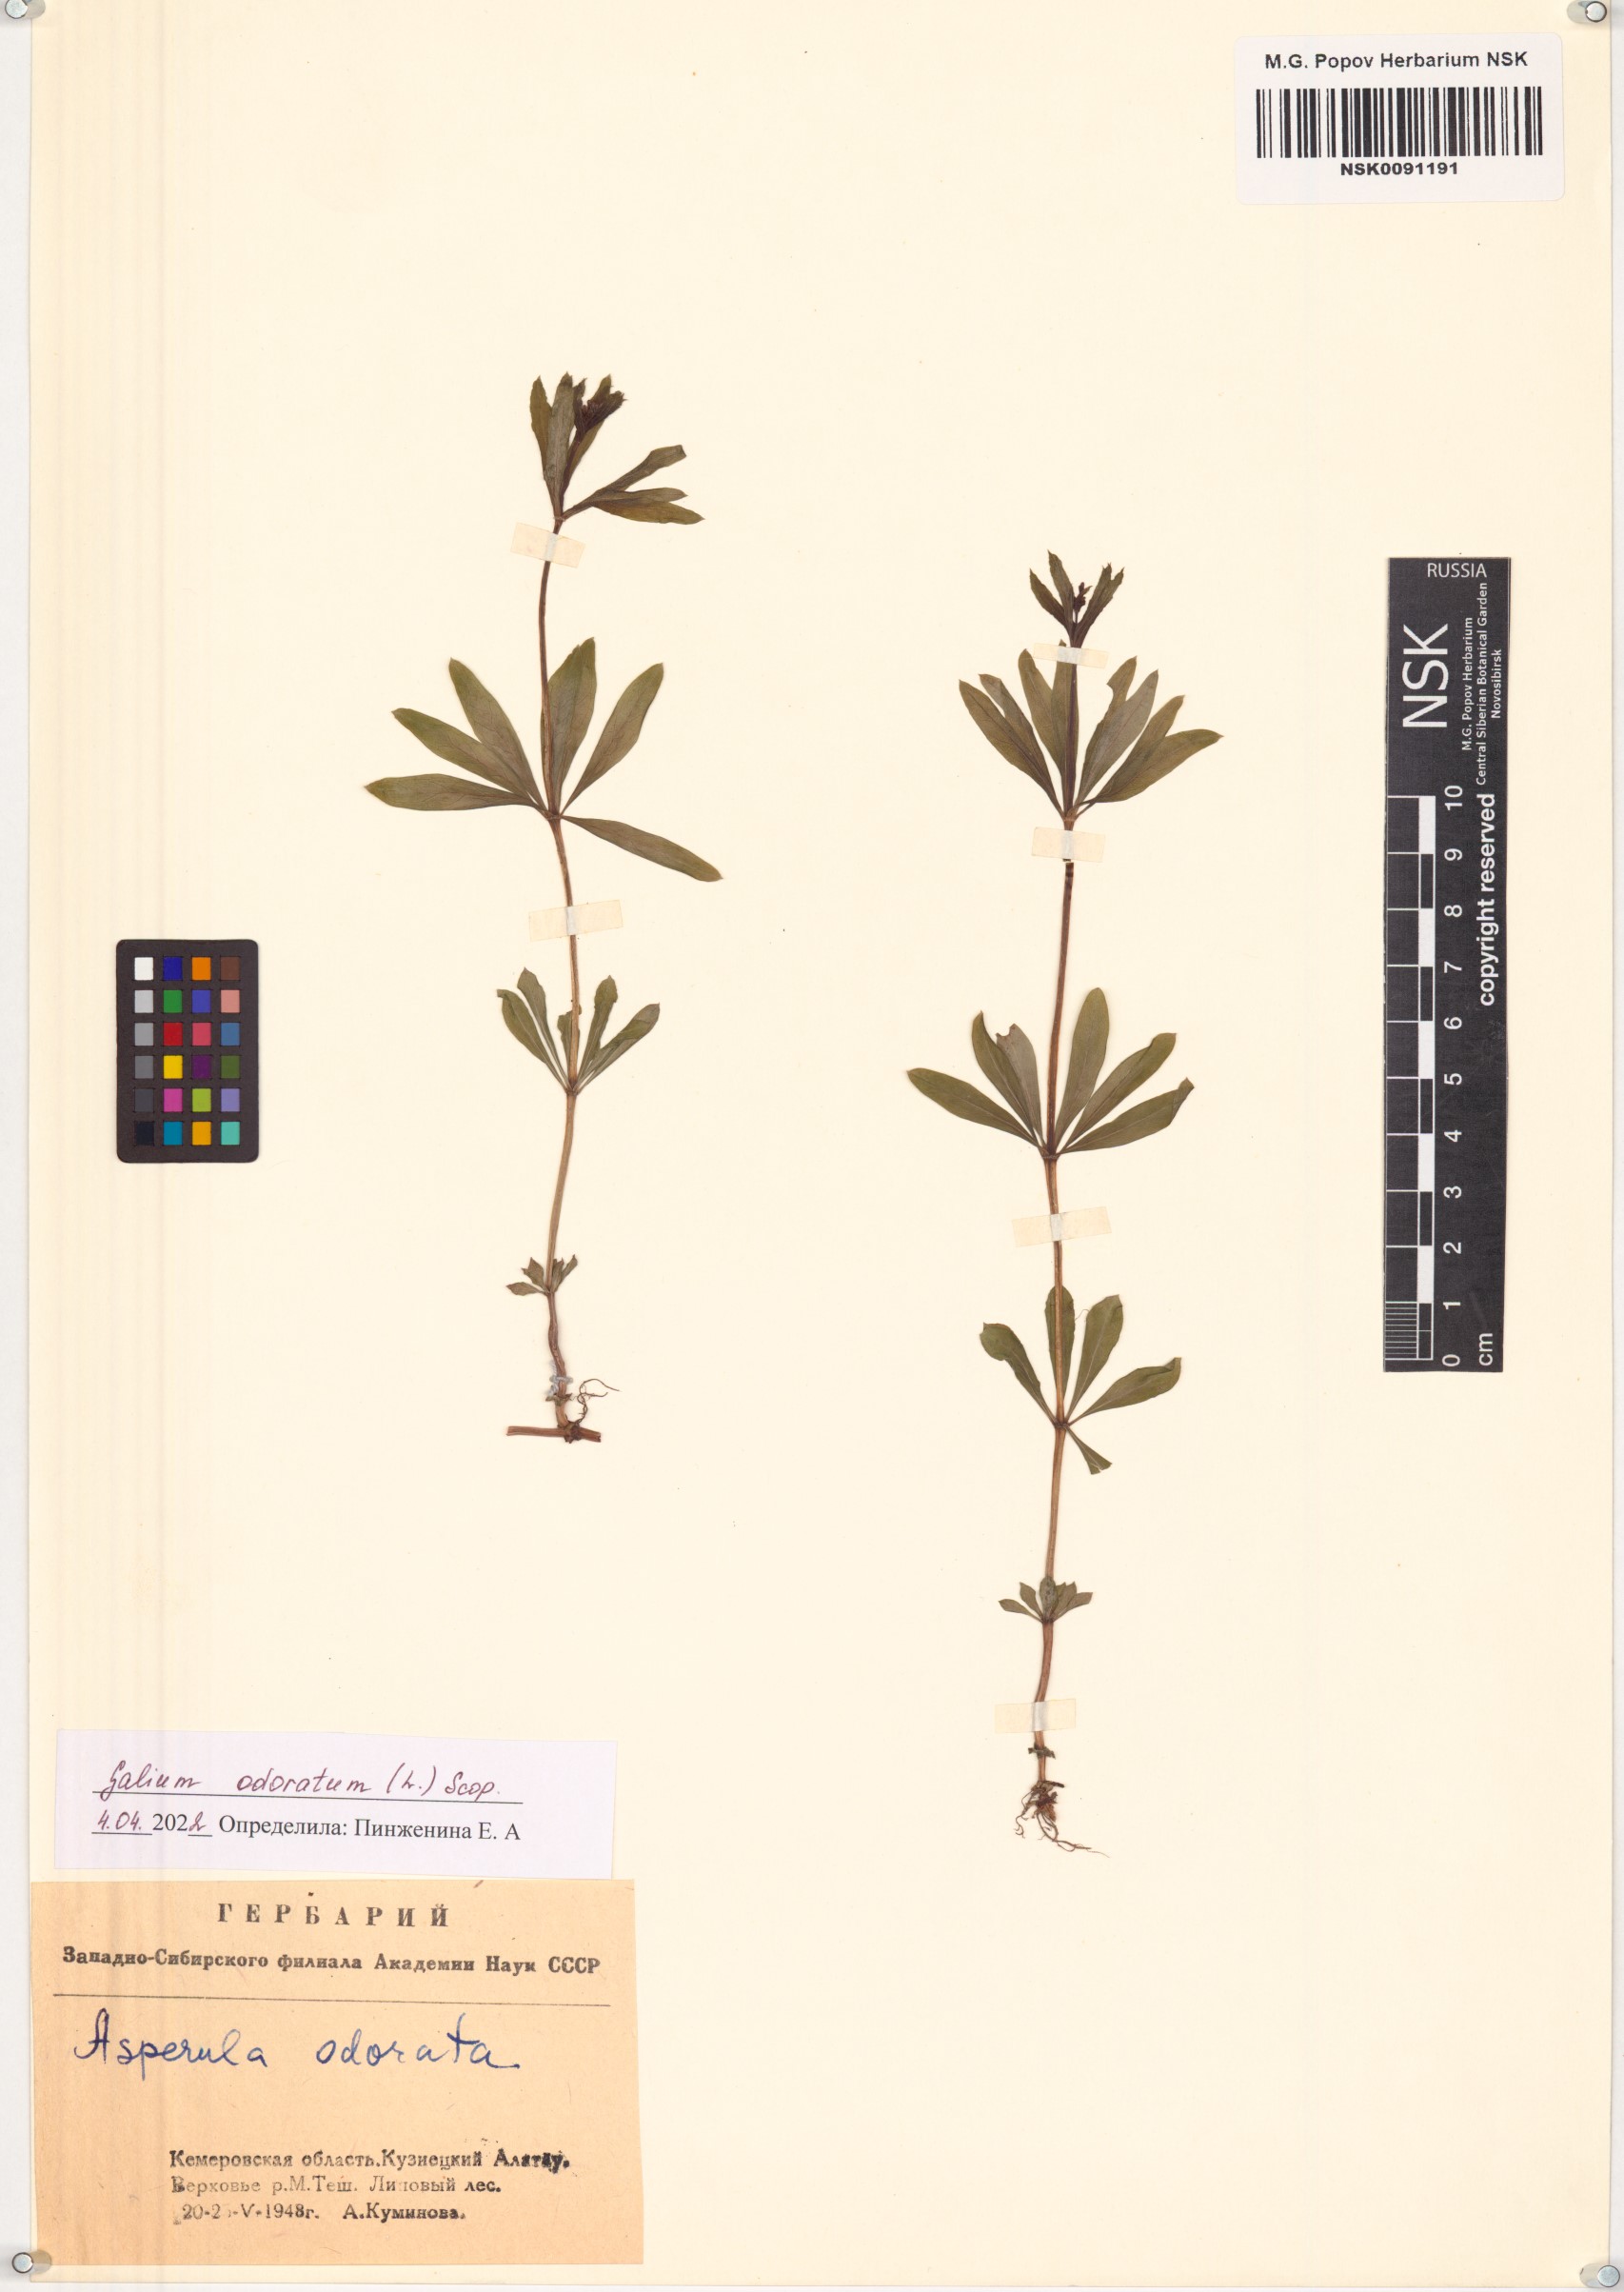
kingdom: Plantae
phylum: Tracheophyta
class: Magnoliopsida
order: Gentianales
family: Rubiaceae
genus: Galium
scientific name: Galium odoratum
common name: Sweet woodruff
